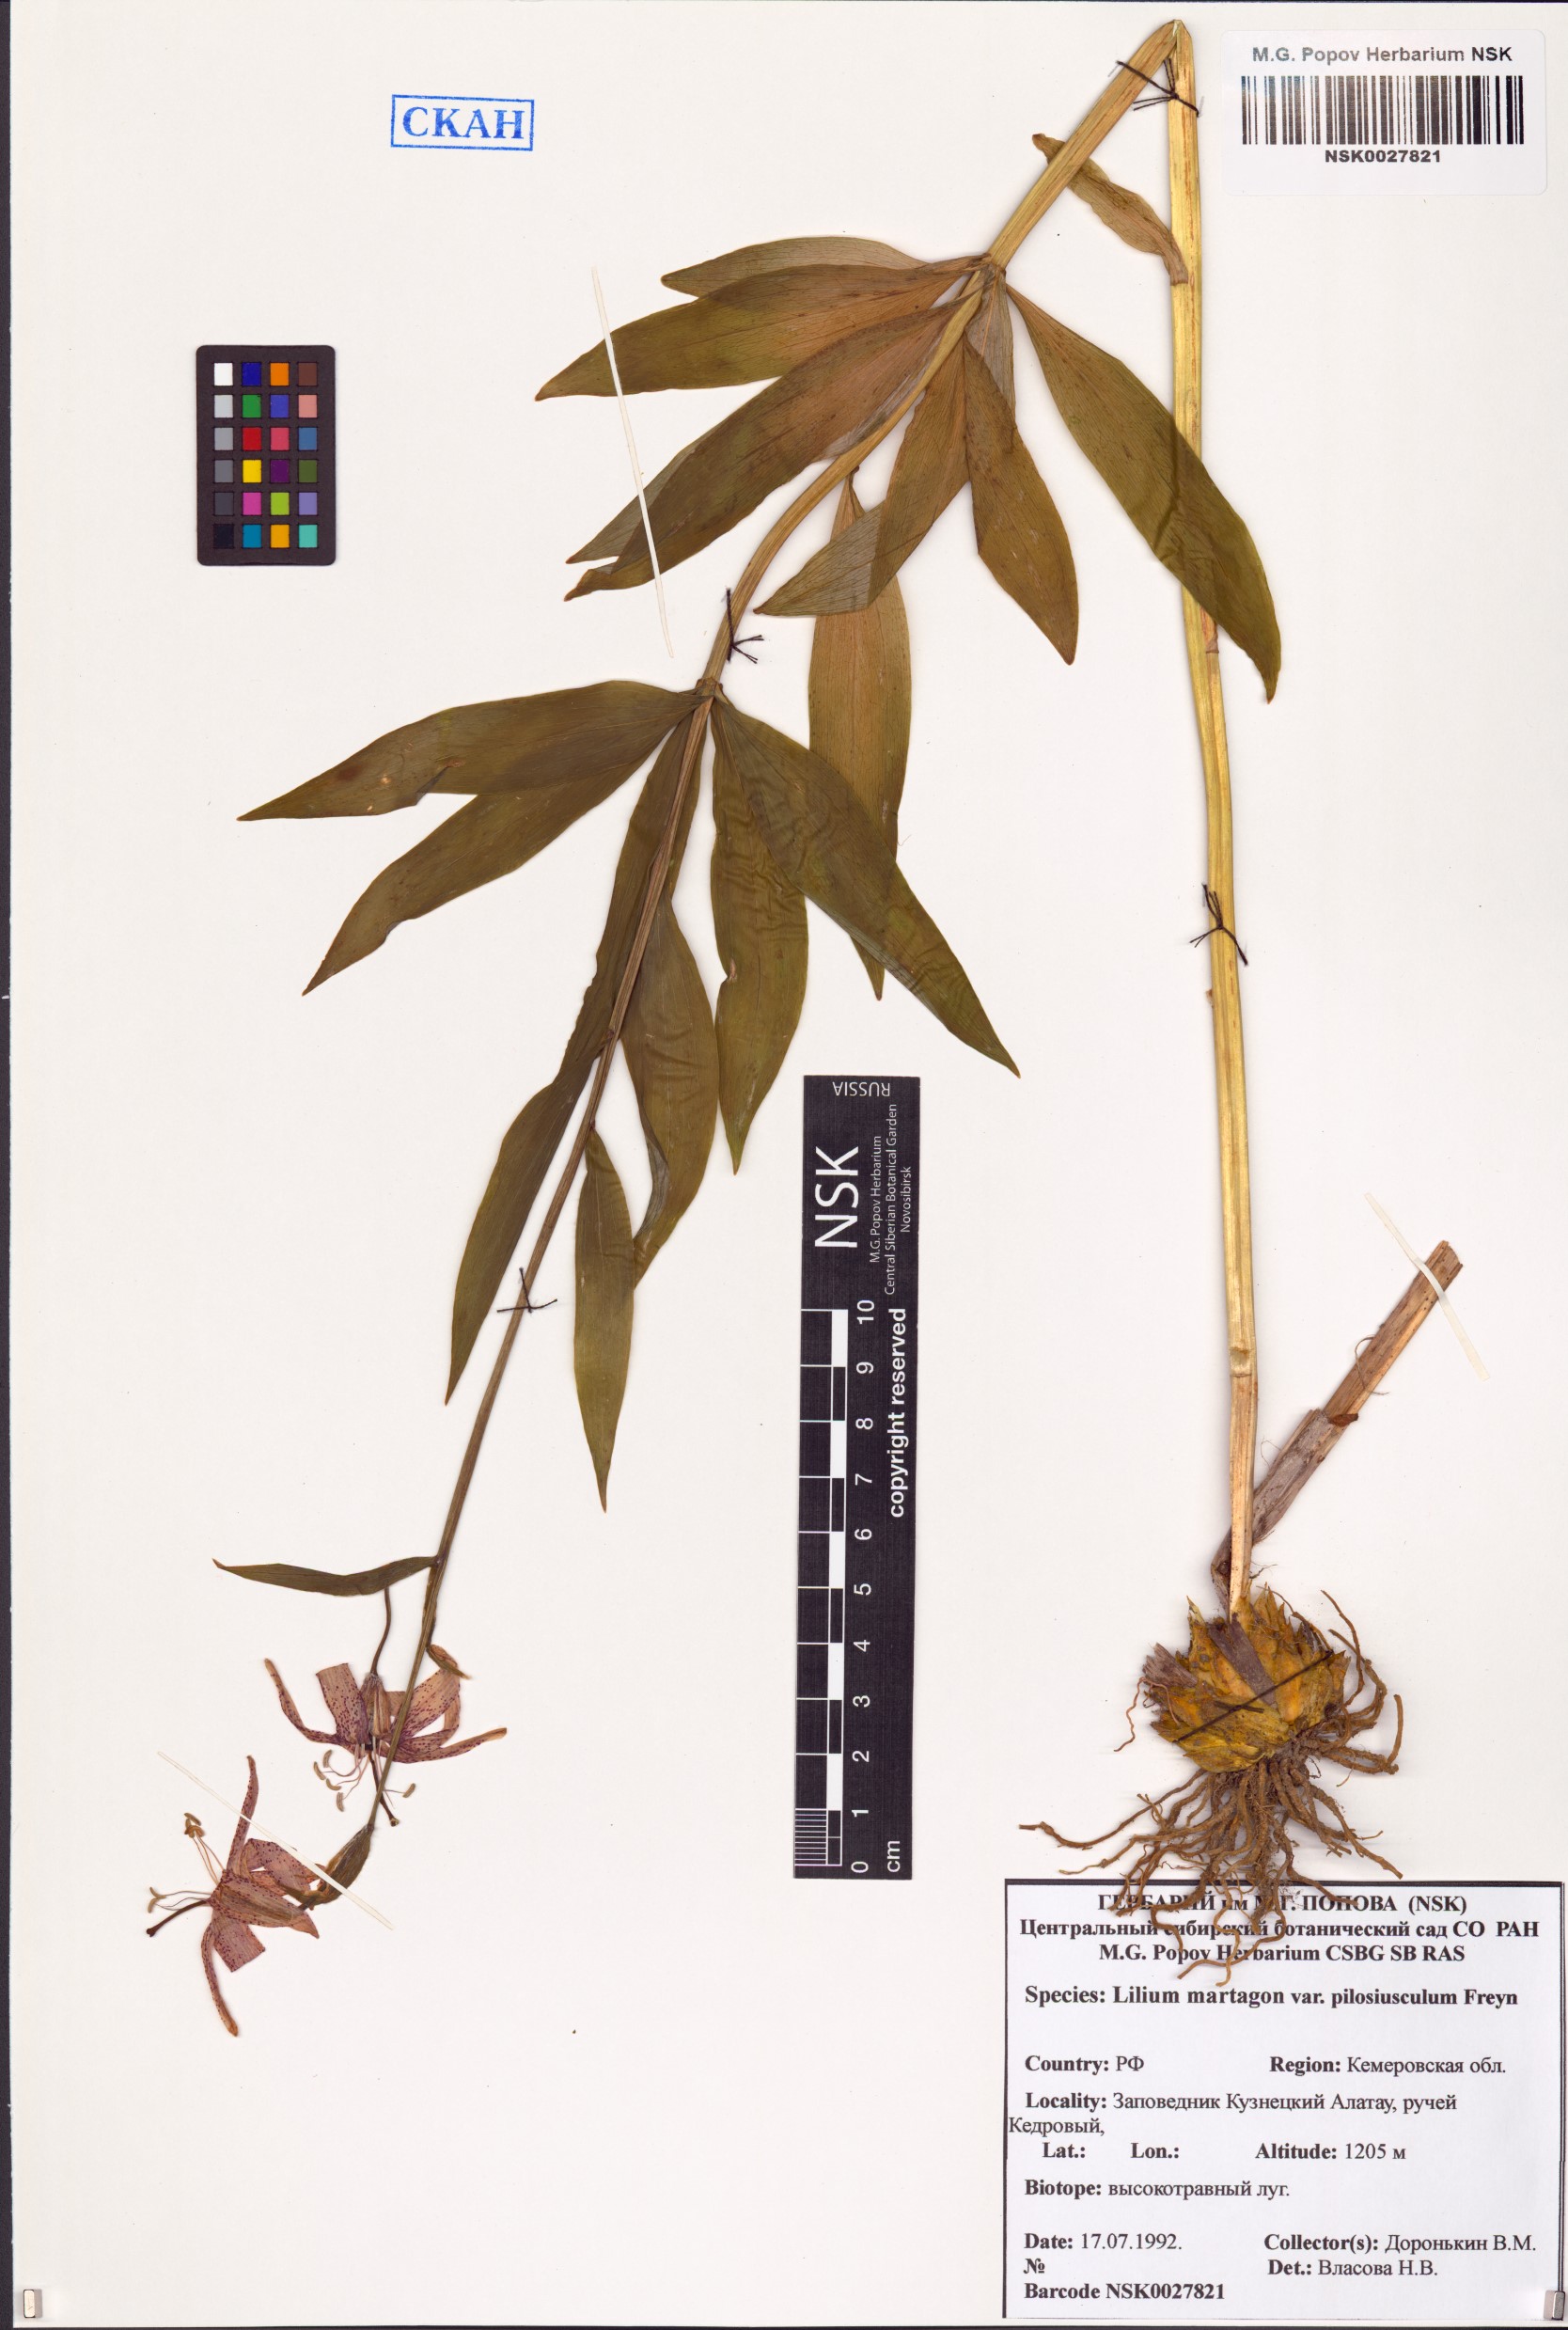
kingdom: Plantae
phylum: Tracheophyta
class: Liliopsida
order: Liliales
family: Liliaceae
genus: Lilium
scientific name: Lilium martagon
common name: Martagon lily
